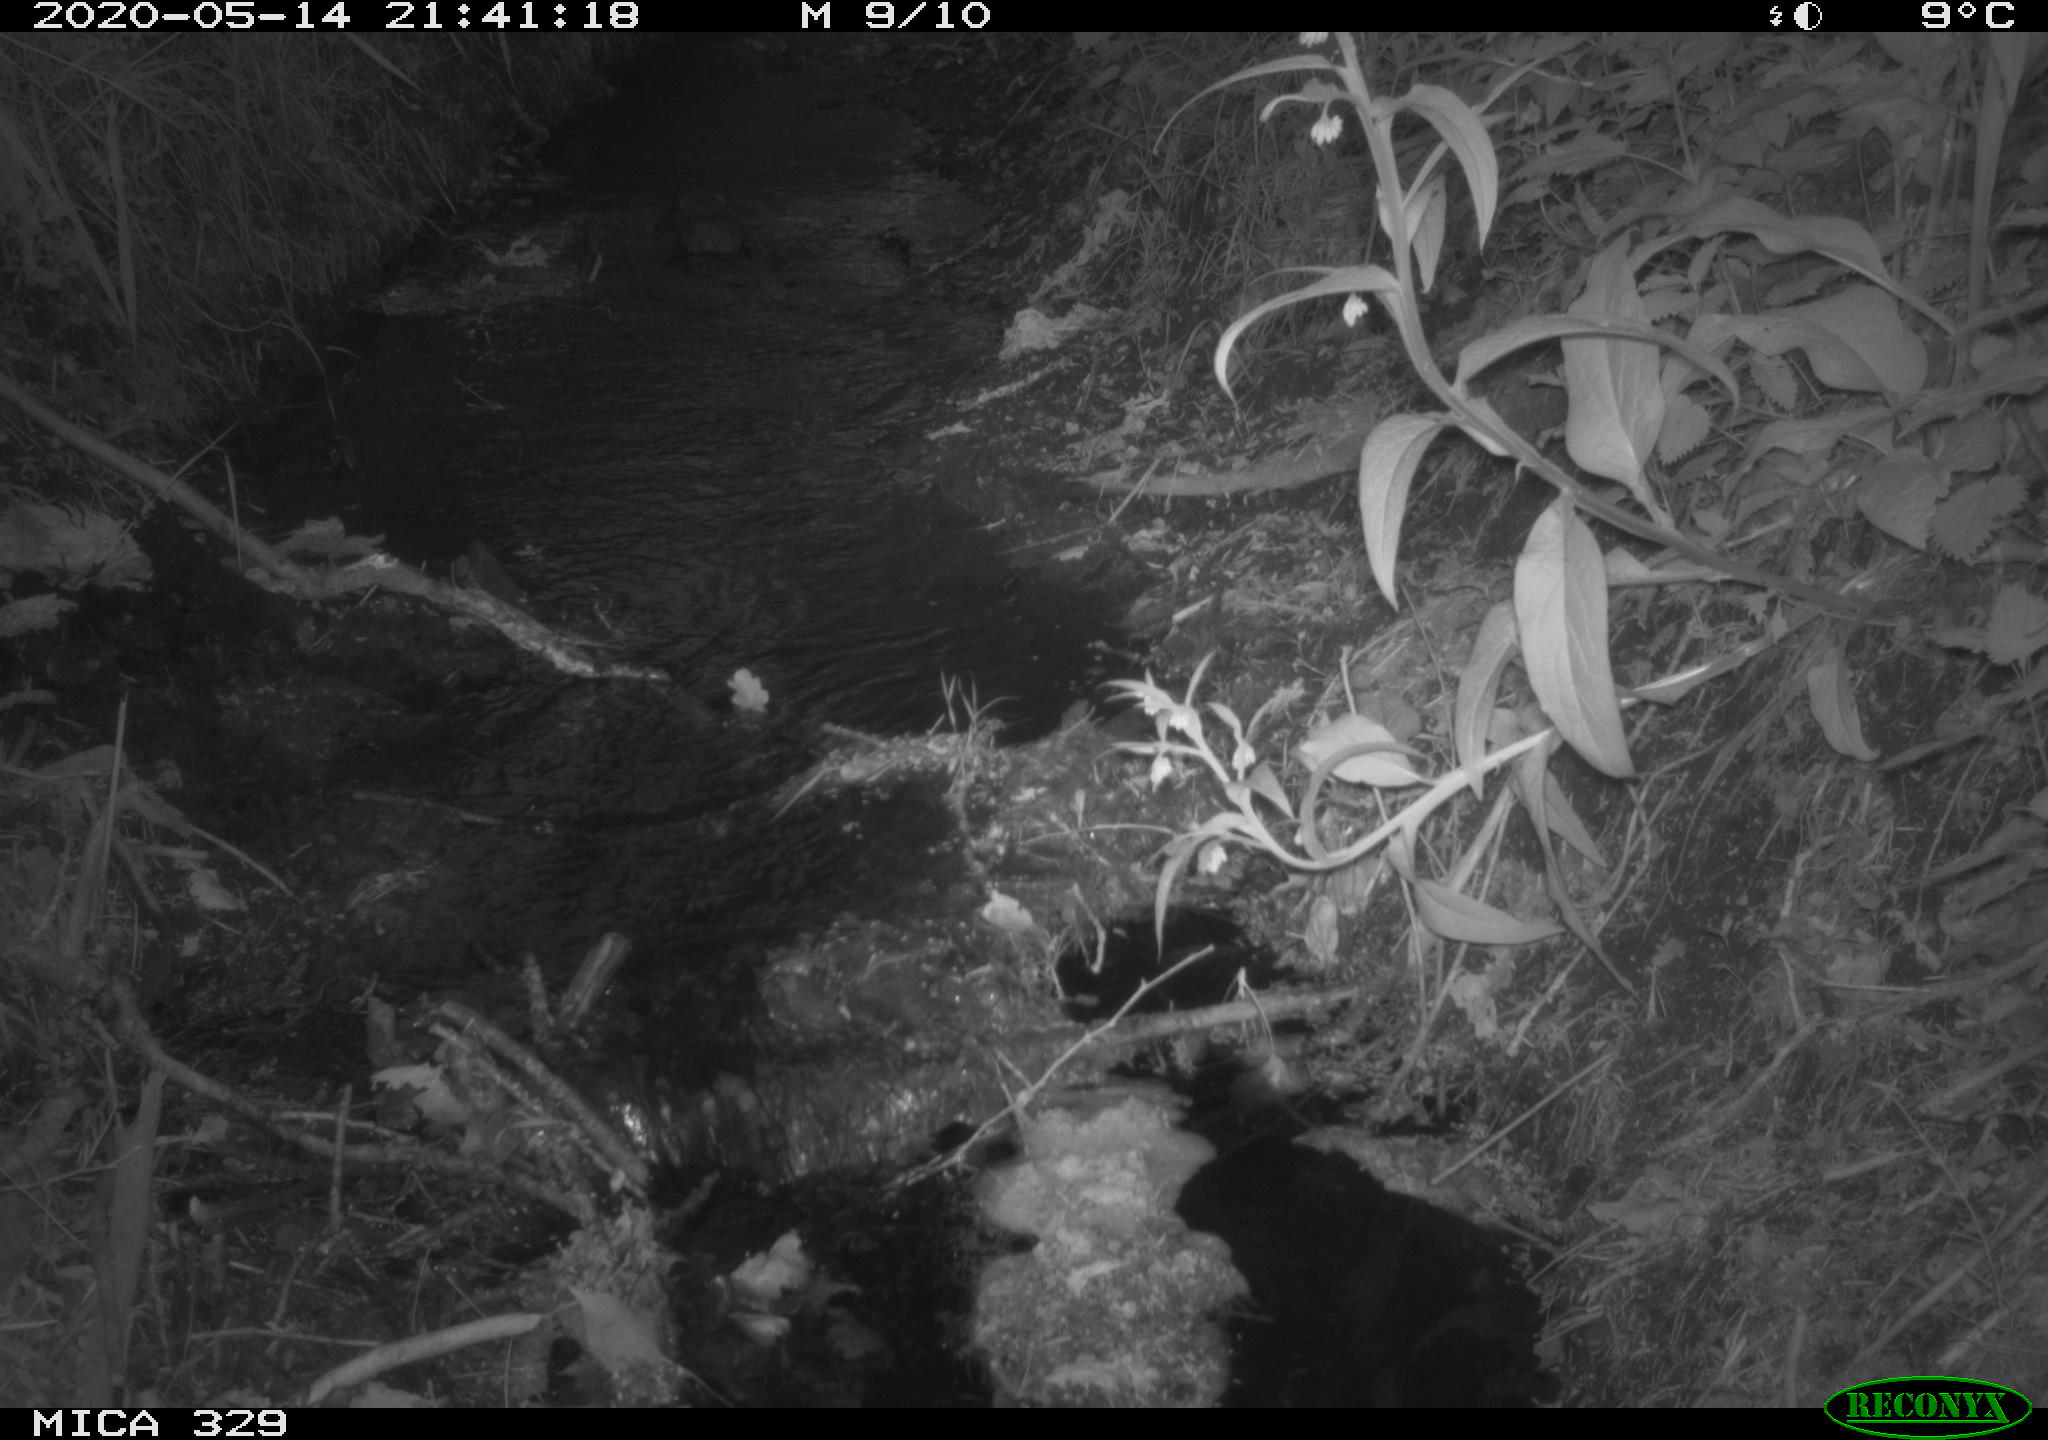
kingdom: Animalia
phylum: Chordata
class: Mammalia
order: Rodentia
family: Cricetidae
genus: Ondatra
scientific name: Ondatra zibethicus
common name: Muskrat
